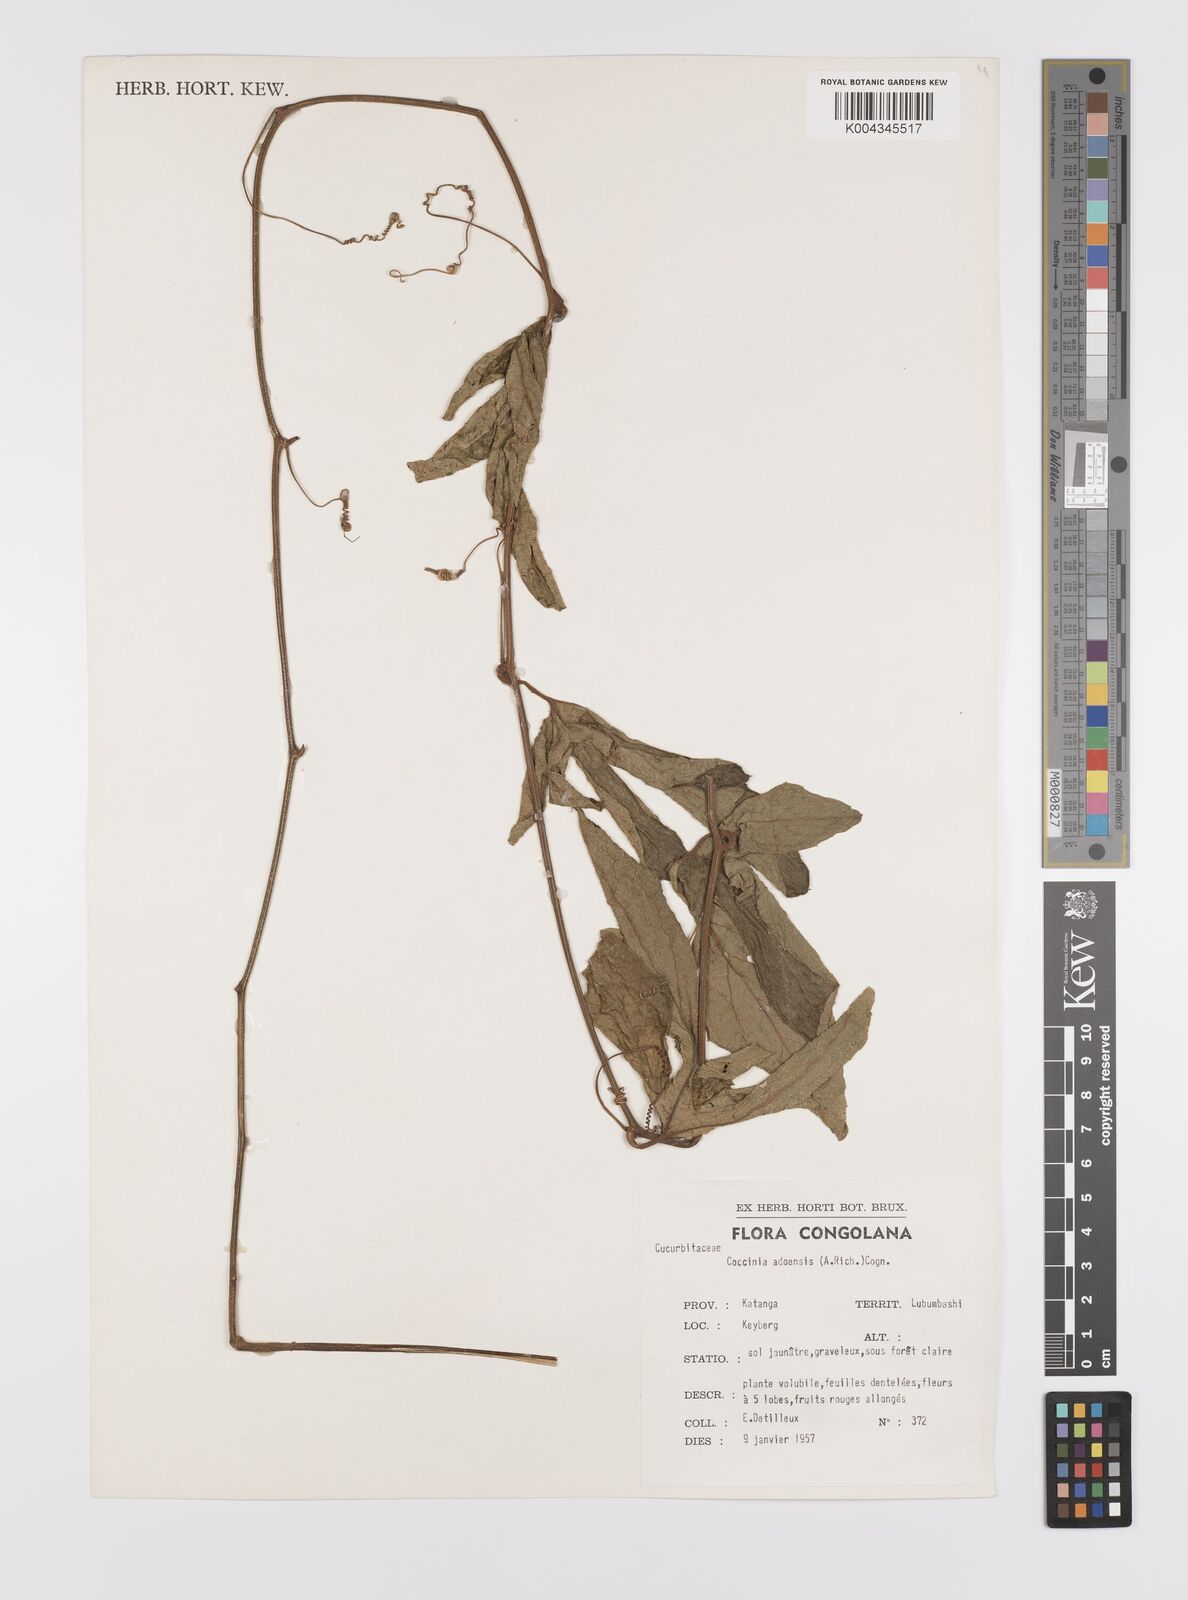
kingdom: Plantae
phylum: Tracheophyta
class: Magnoliopsida
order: Cucurbitales
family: Cucurbitaceae
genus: Coccinia
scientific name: Coccinia adoensis
